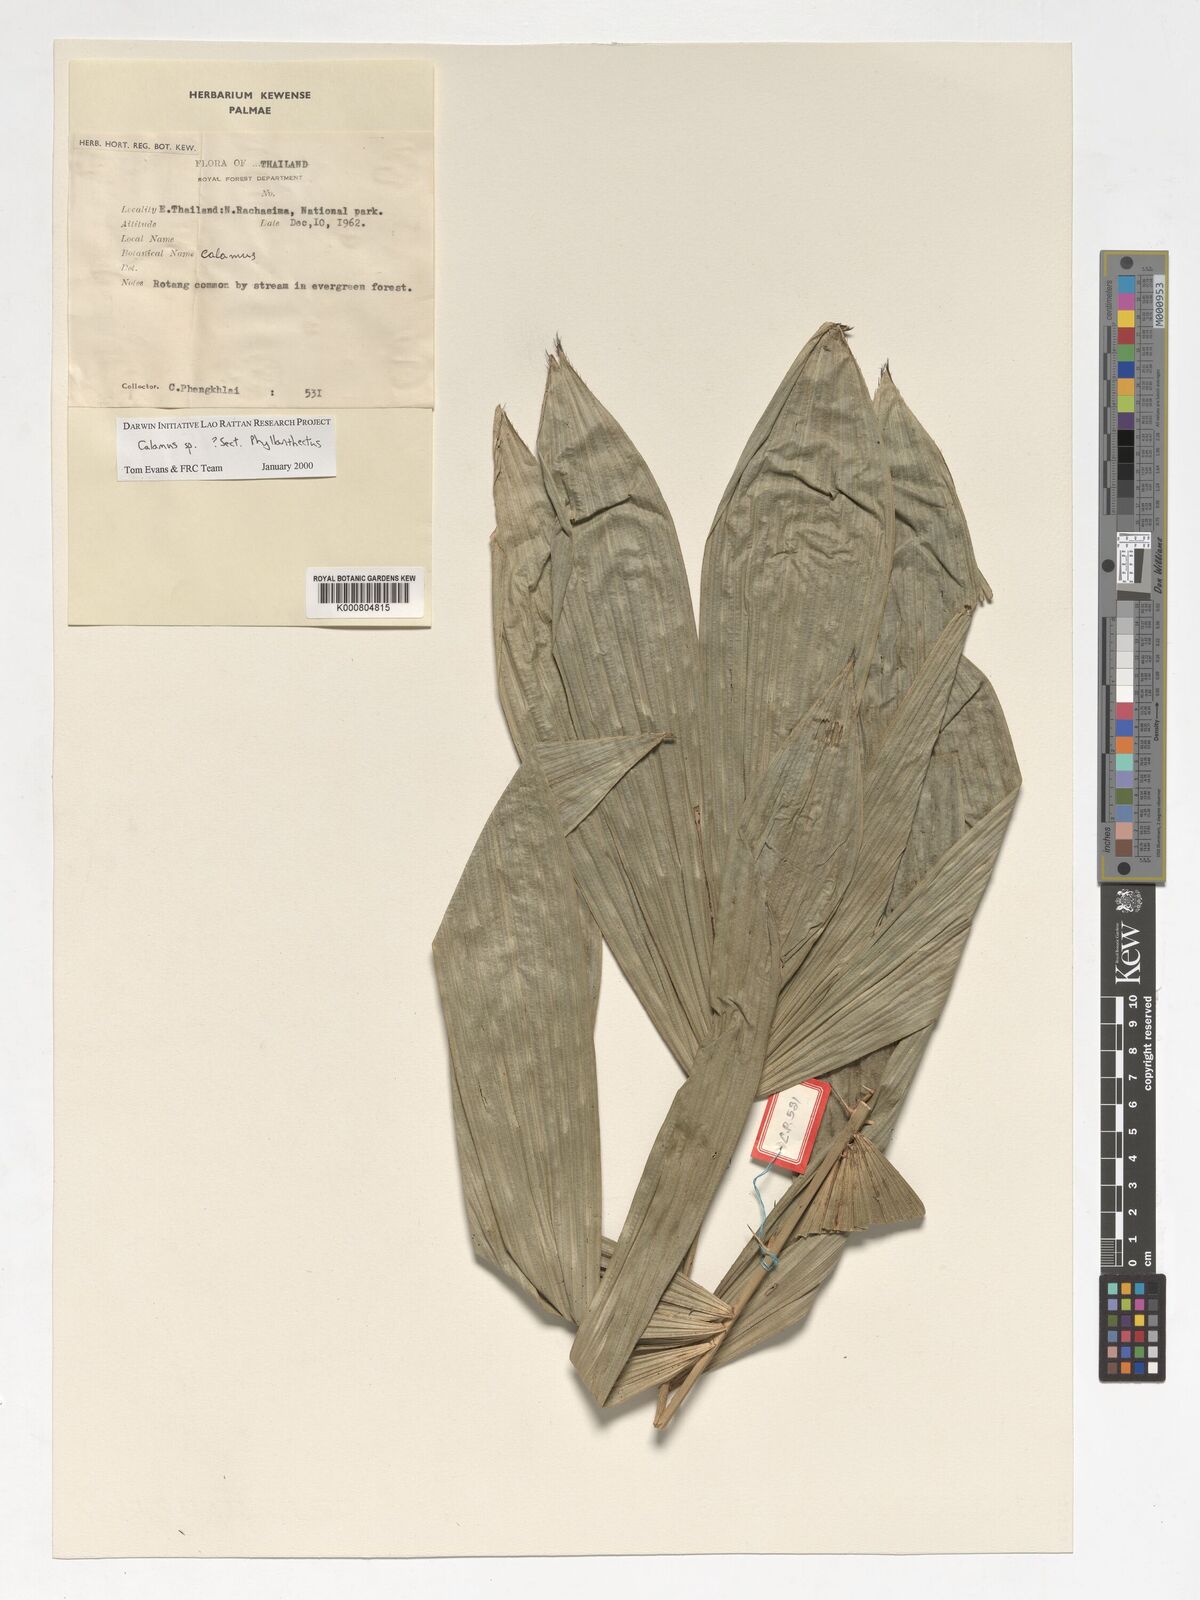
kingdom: Plantae
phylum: Tracheophyta
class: Liliopsida
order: Arecales
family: Arecaceae
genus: Calamus
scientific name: Calamus
